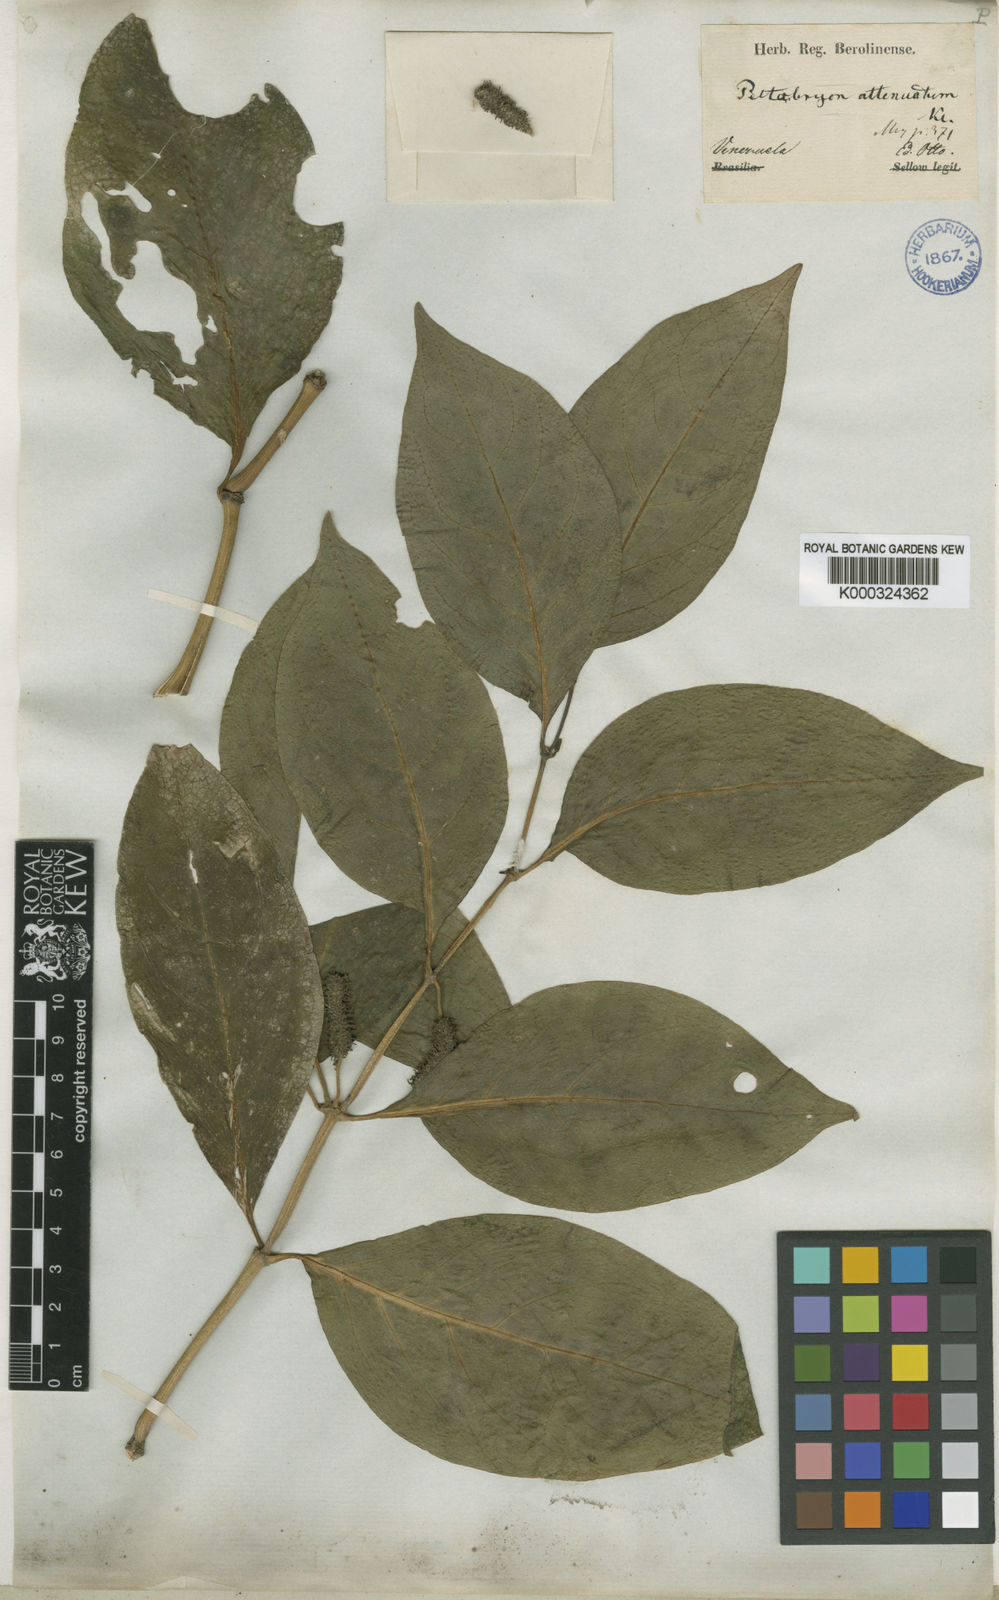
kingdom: Plantae
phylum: Tracheophyta
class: Magnoliopsida
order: Piperales
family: Piperaceae
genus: Piper
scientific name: Piper phytolaccifolium
